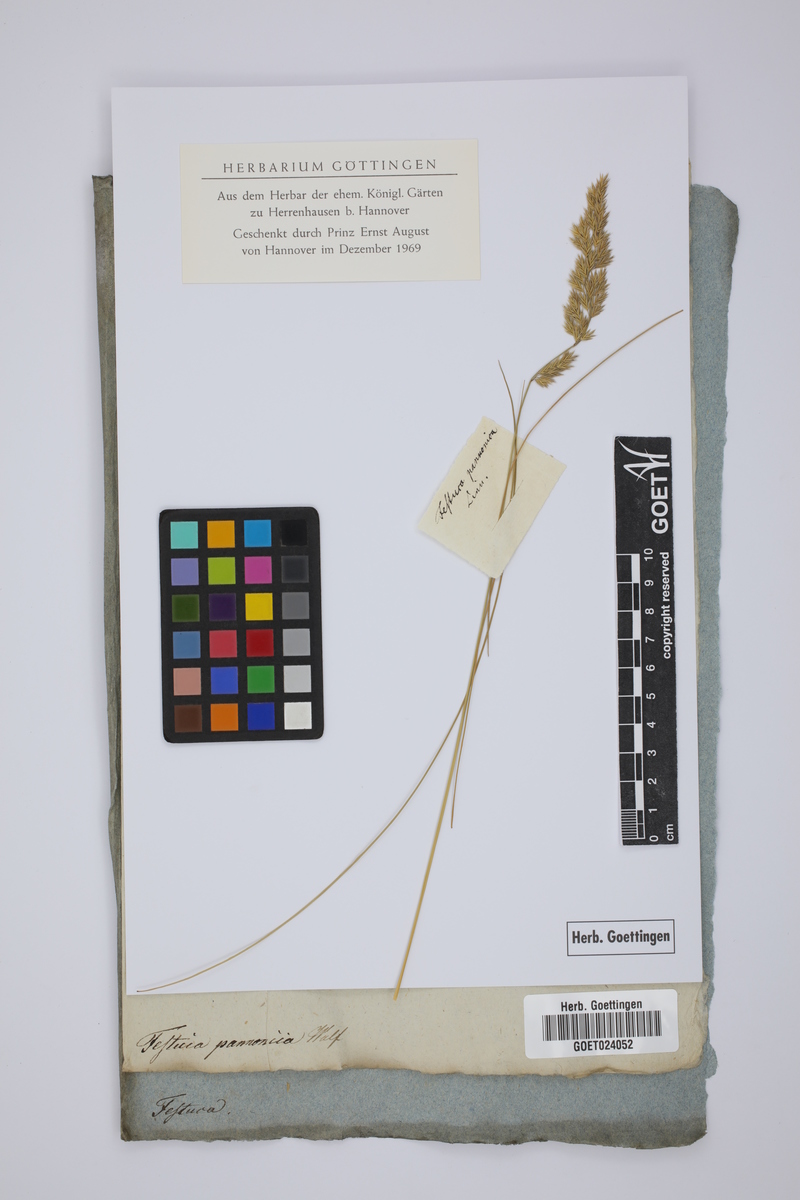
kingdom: Plantae
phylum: Tracheophyta
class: Liliopsida
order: Poales
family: Poaceae
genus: Festuca
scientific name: Festuca valesiaca
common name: Volga fescue
